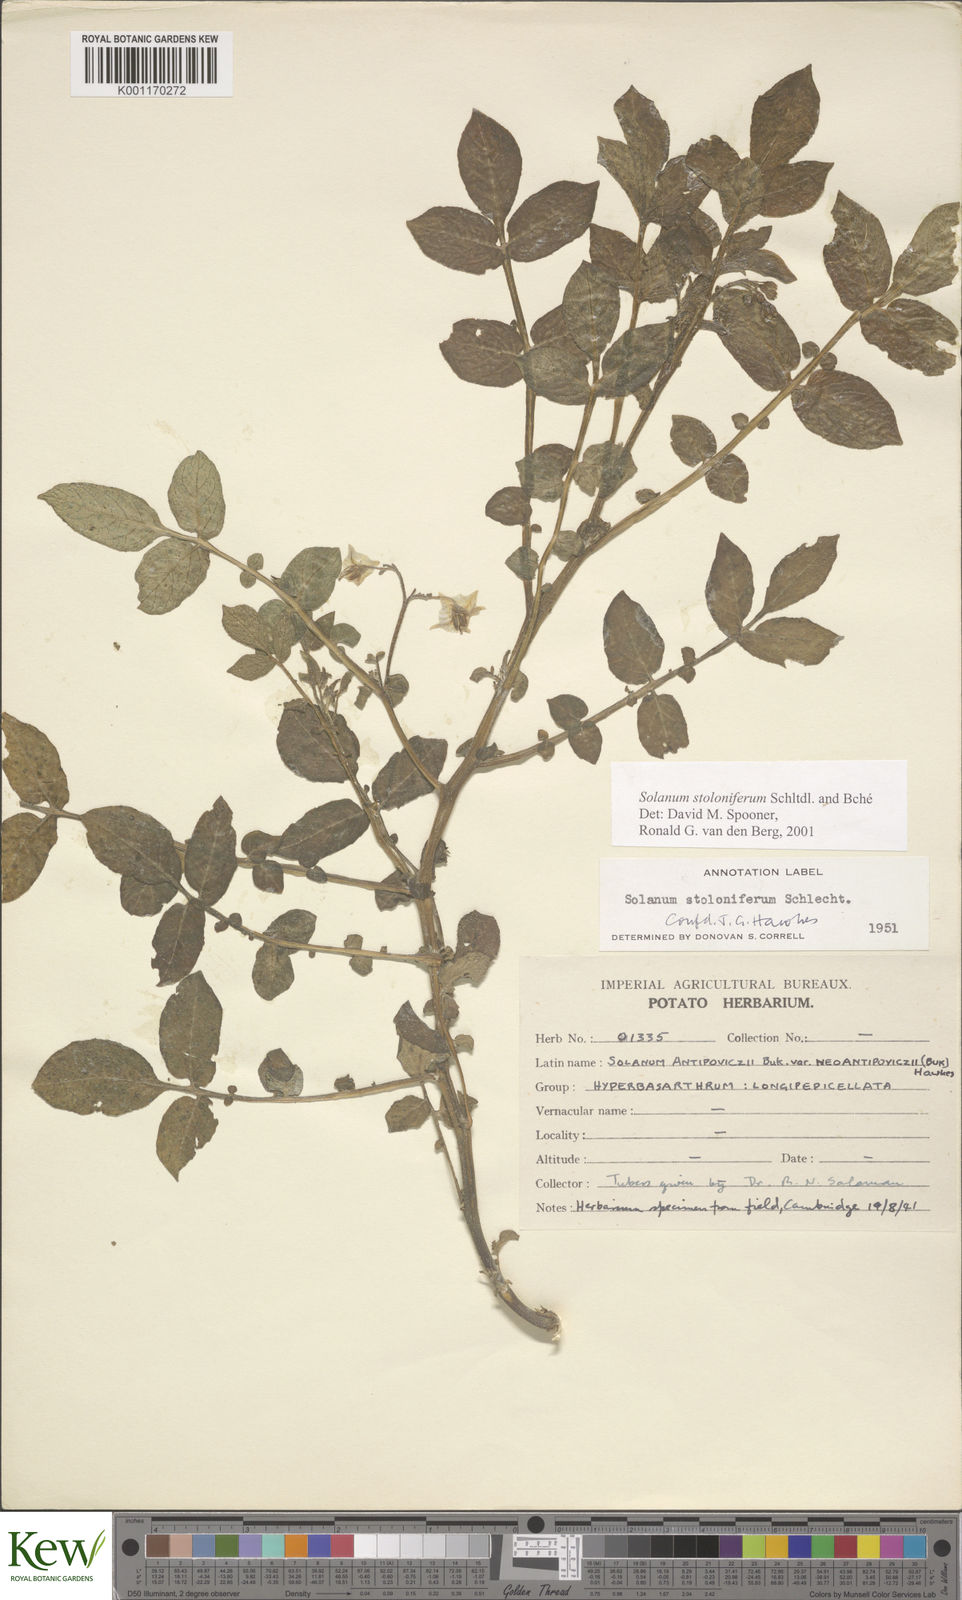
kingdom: Plantae
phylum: Tracheophyta
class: Magnoliopsida
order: Solanales
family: Solanaceae
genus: Solanum
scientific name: Solanum stoloniferum
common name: Fendler's nighshade
